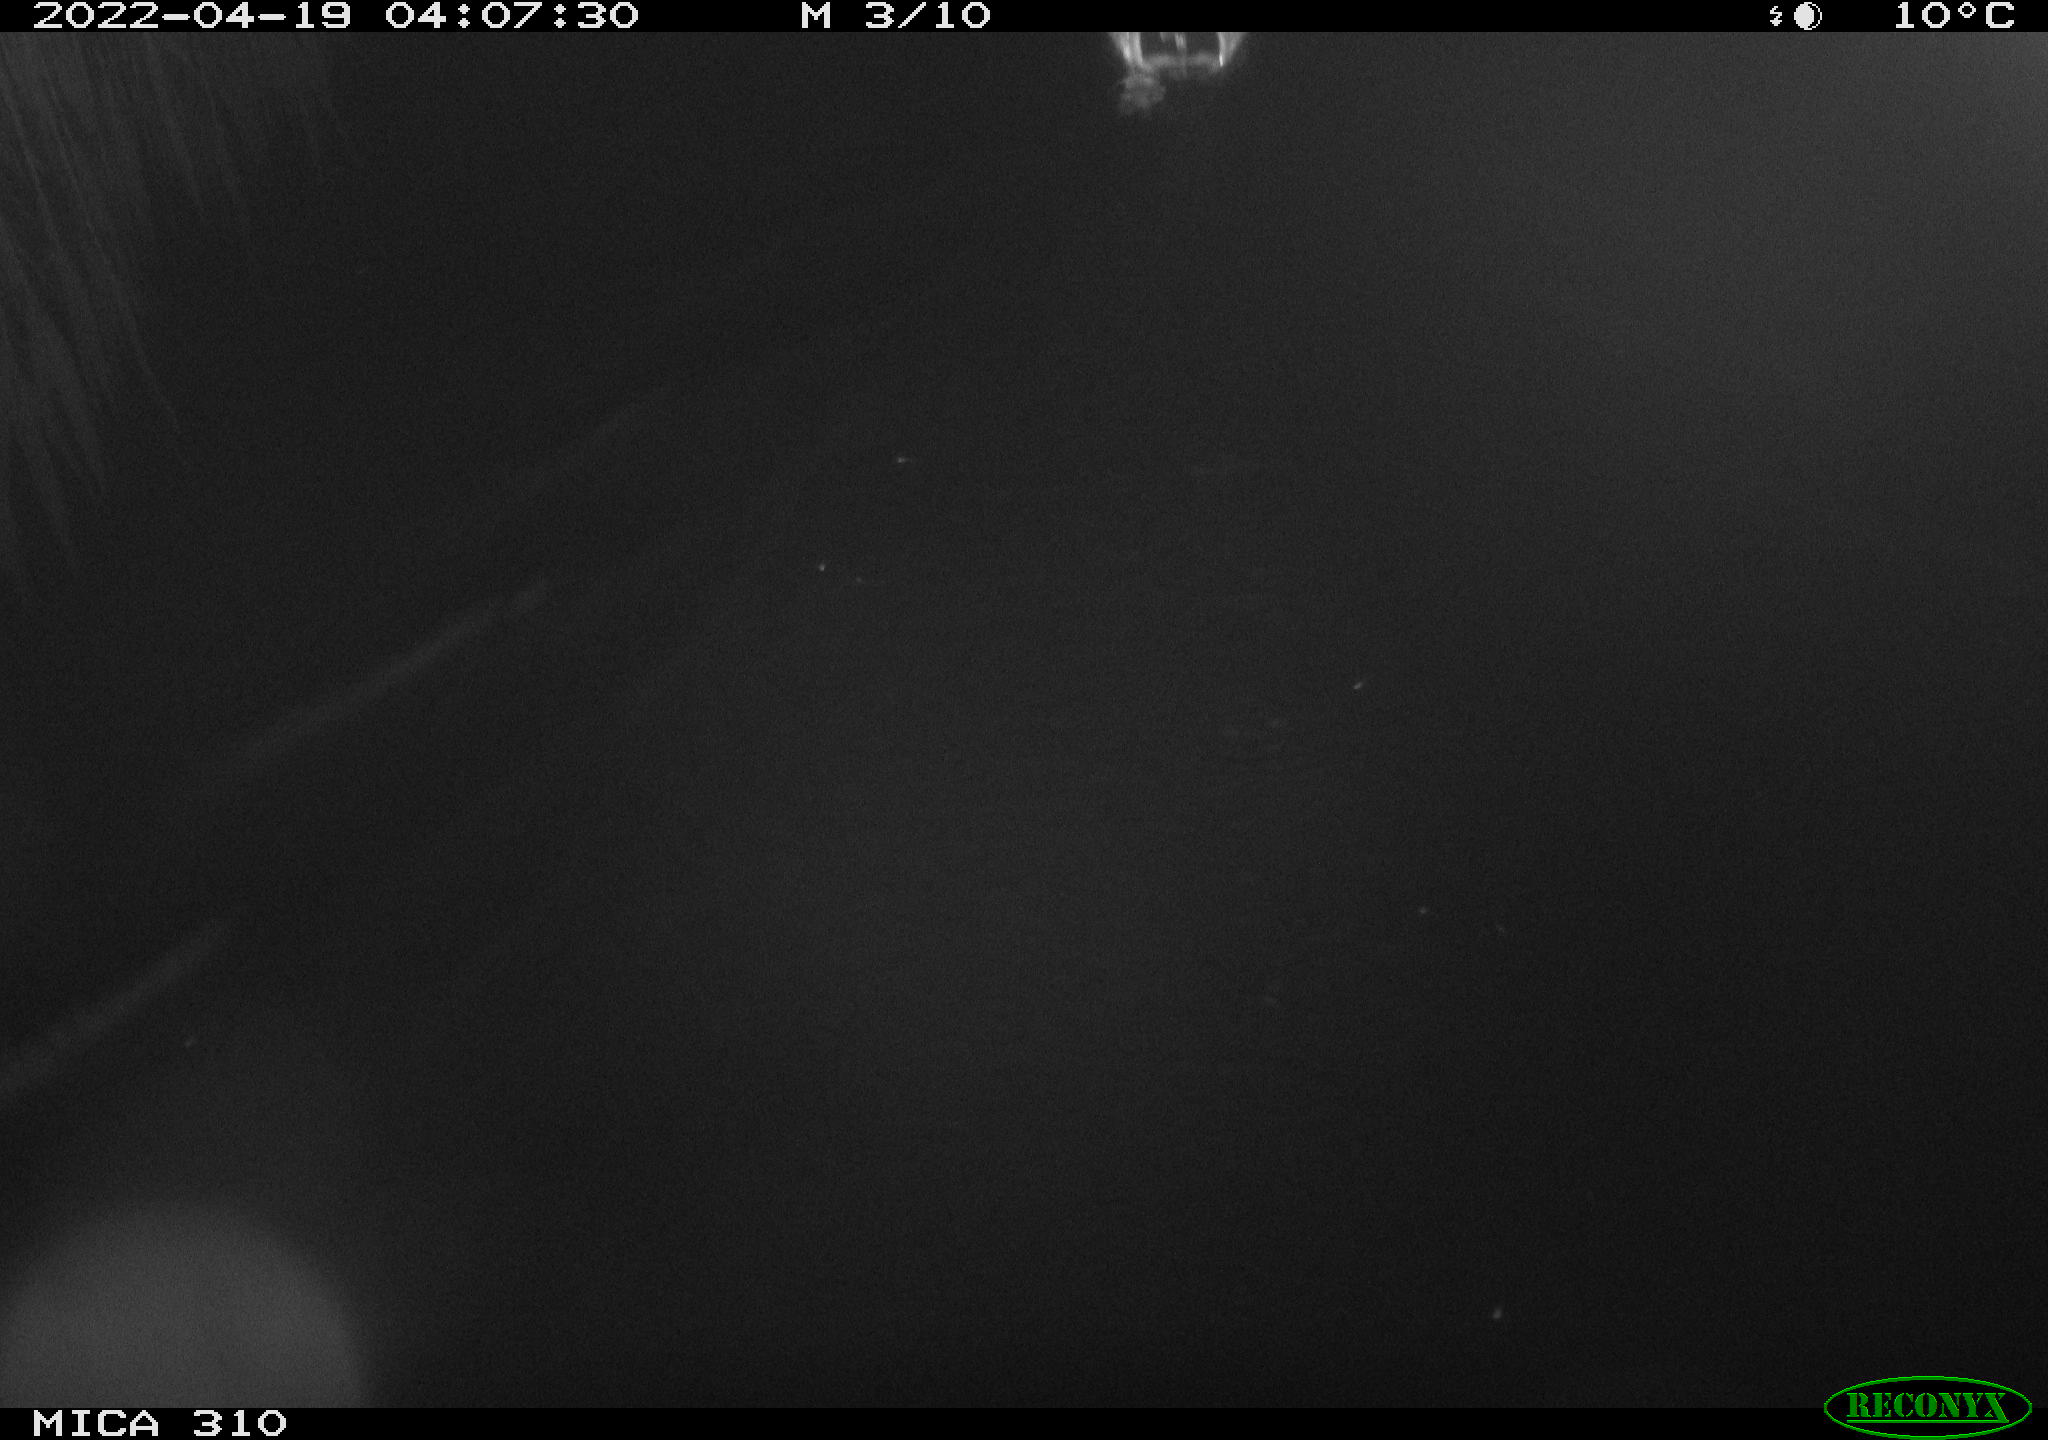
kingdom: Animalia
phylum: Chordata
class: Aves
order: Anseriformes
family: Anatidae
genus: Anas
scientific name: Anas platyrhynchos
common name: Mallard
